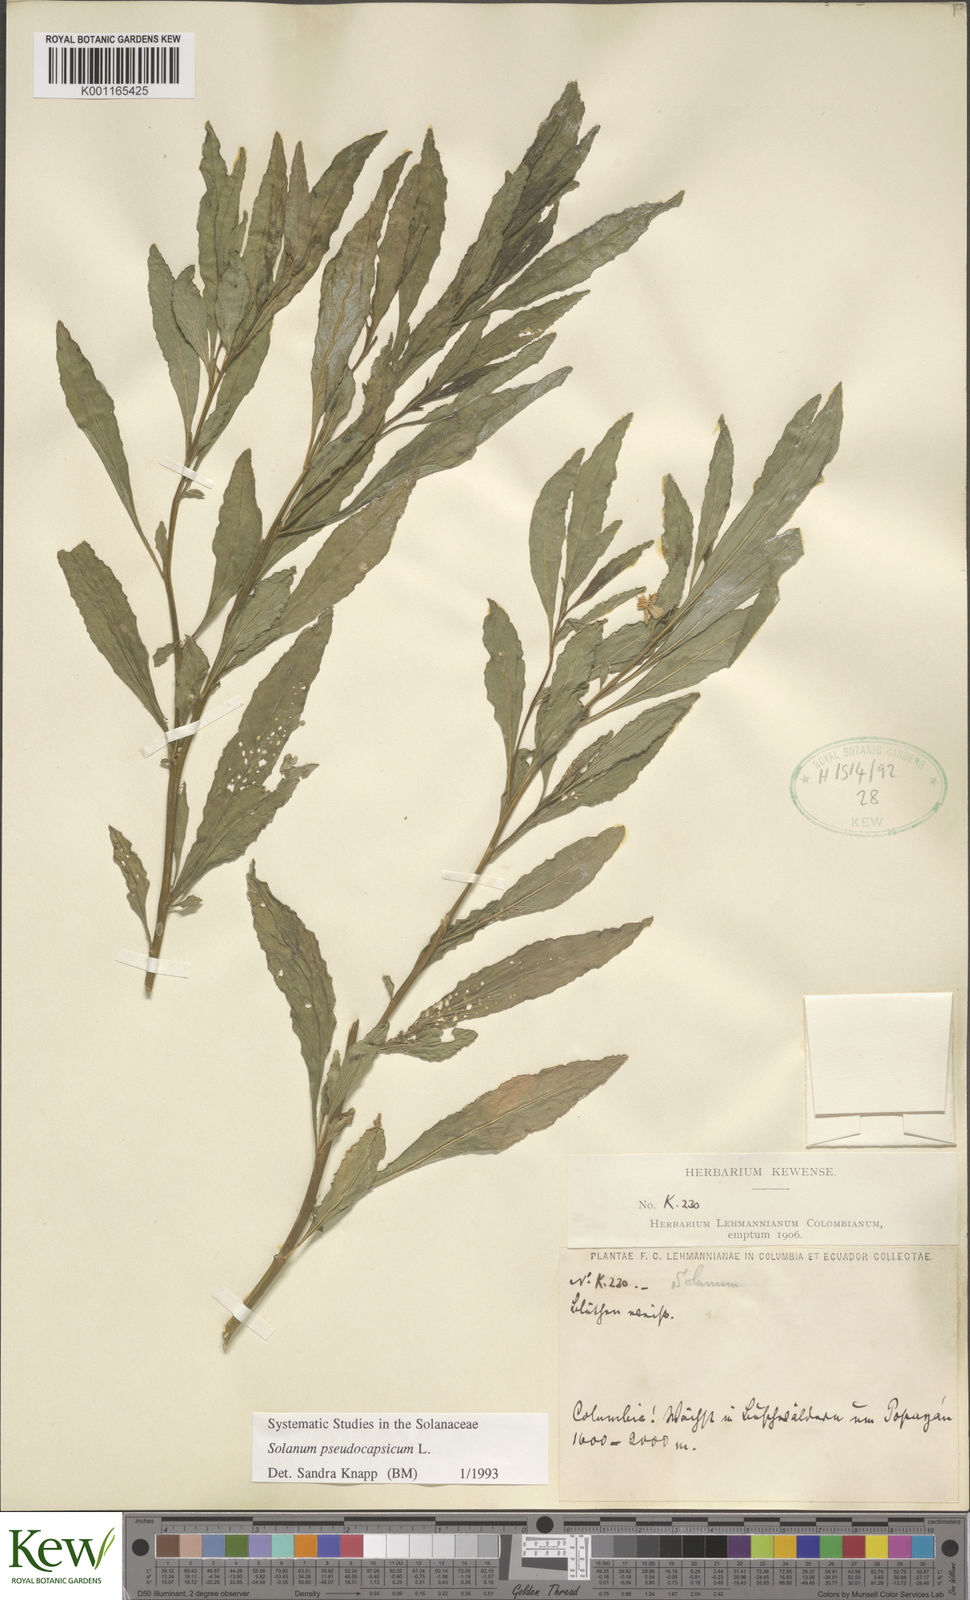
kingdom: Plantae
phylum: Tracheophyta
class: Magnoliopsida
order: Solanales
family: Solanaceae
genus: Solanum
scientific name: Solanum pseudocapsicum
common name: Jerusalem cherry
